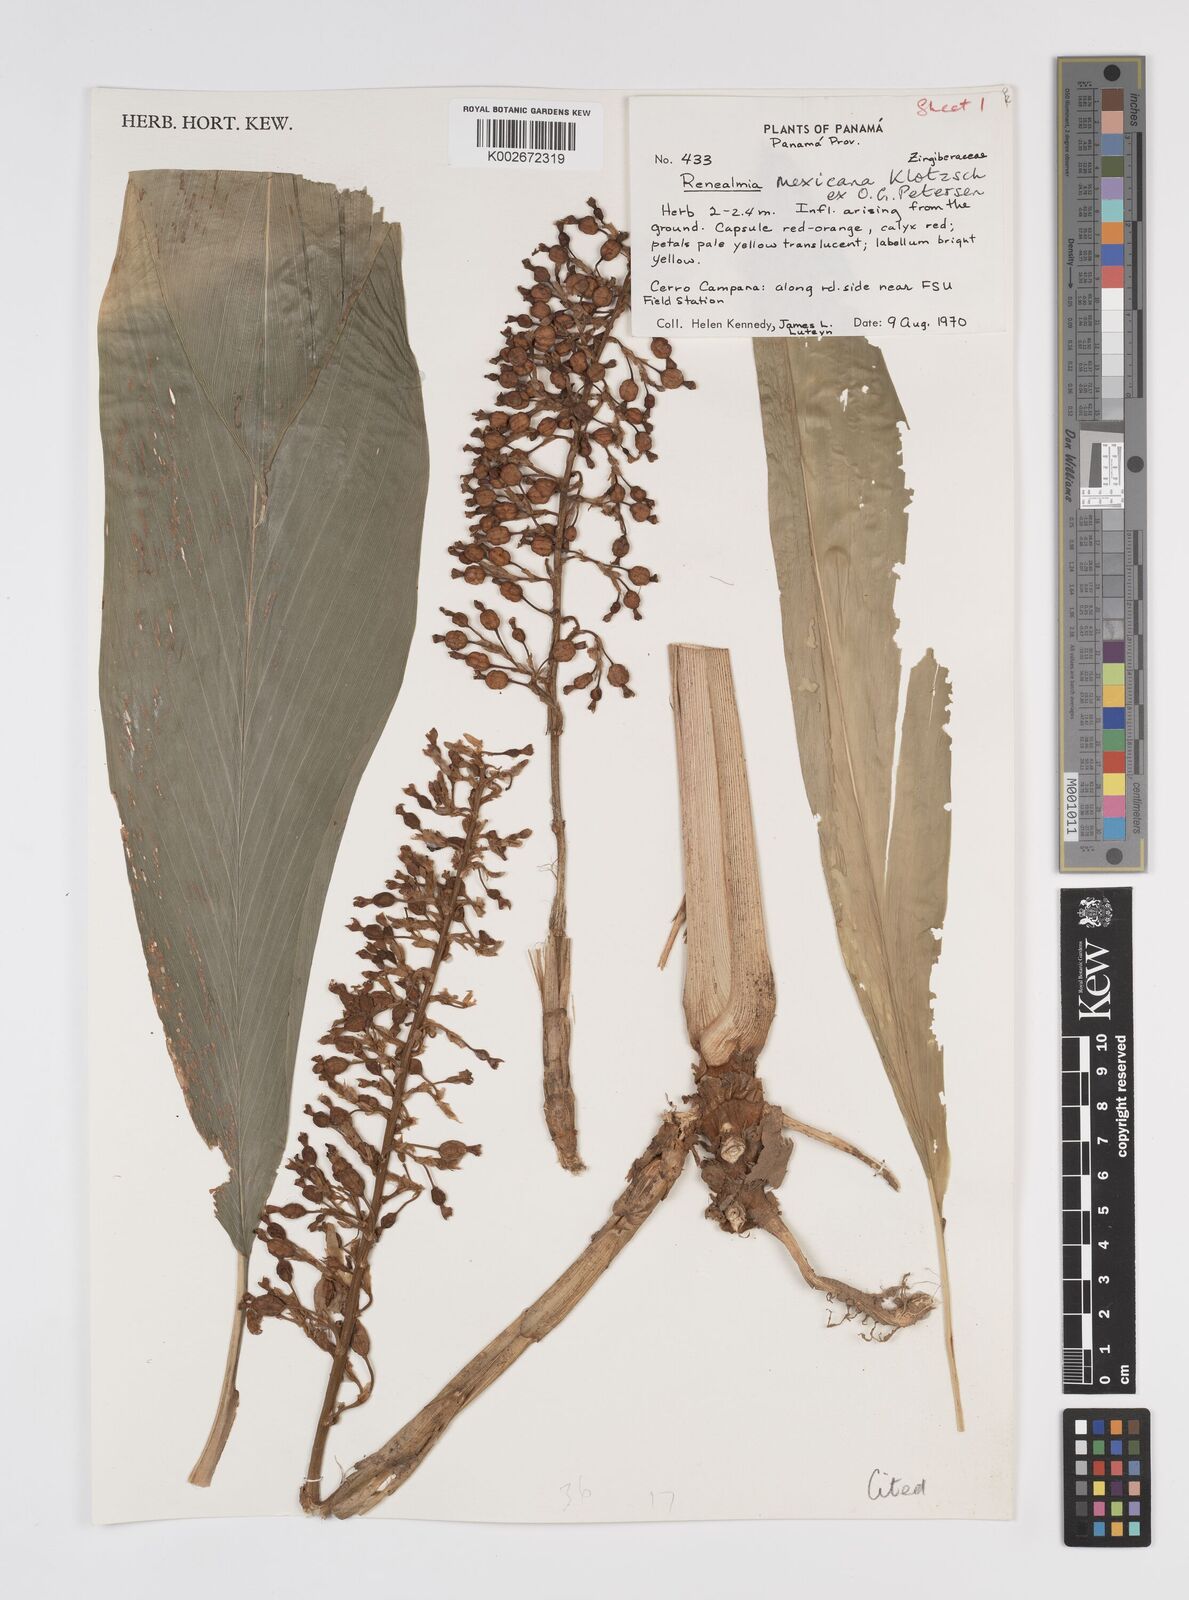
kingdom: Plantae
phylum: Tracheophyta
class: Liliopsida
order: Zingiberales
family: Zingiberaceae
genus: Renealmia
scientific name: Renealmia mexicana
